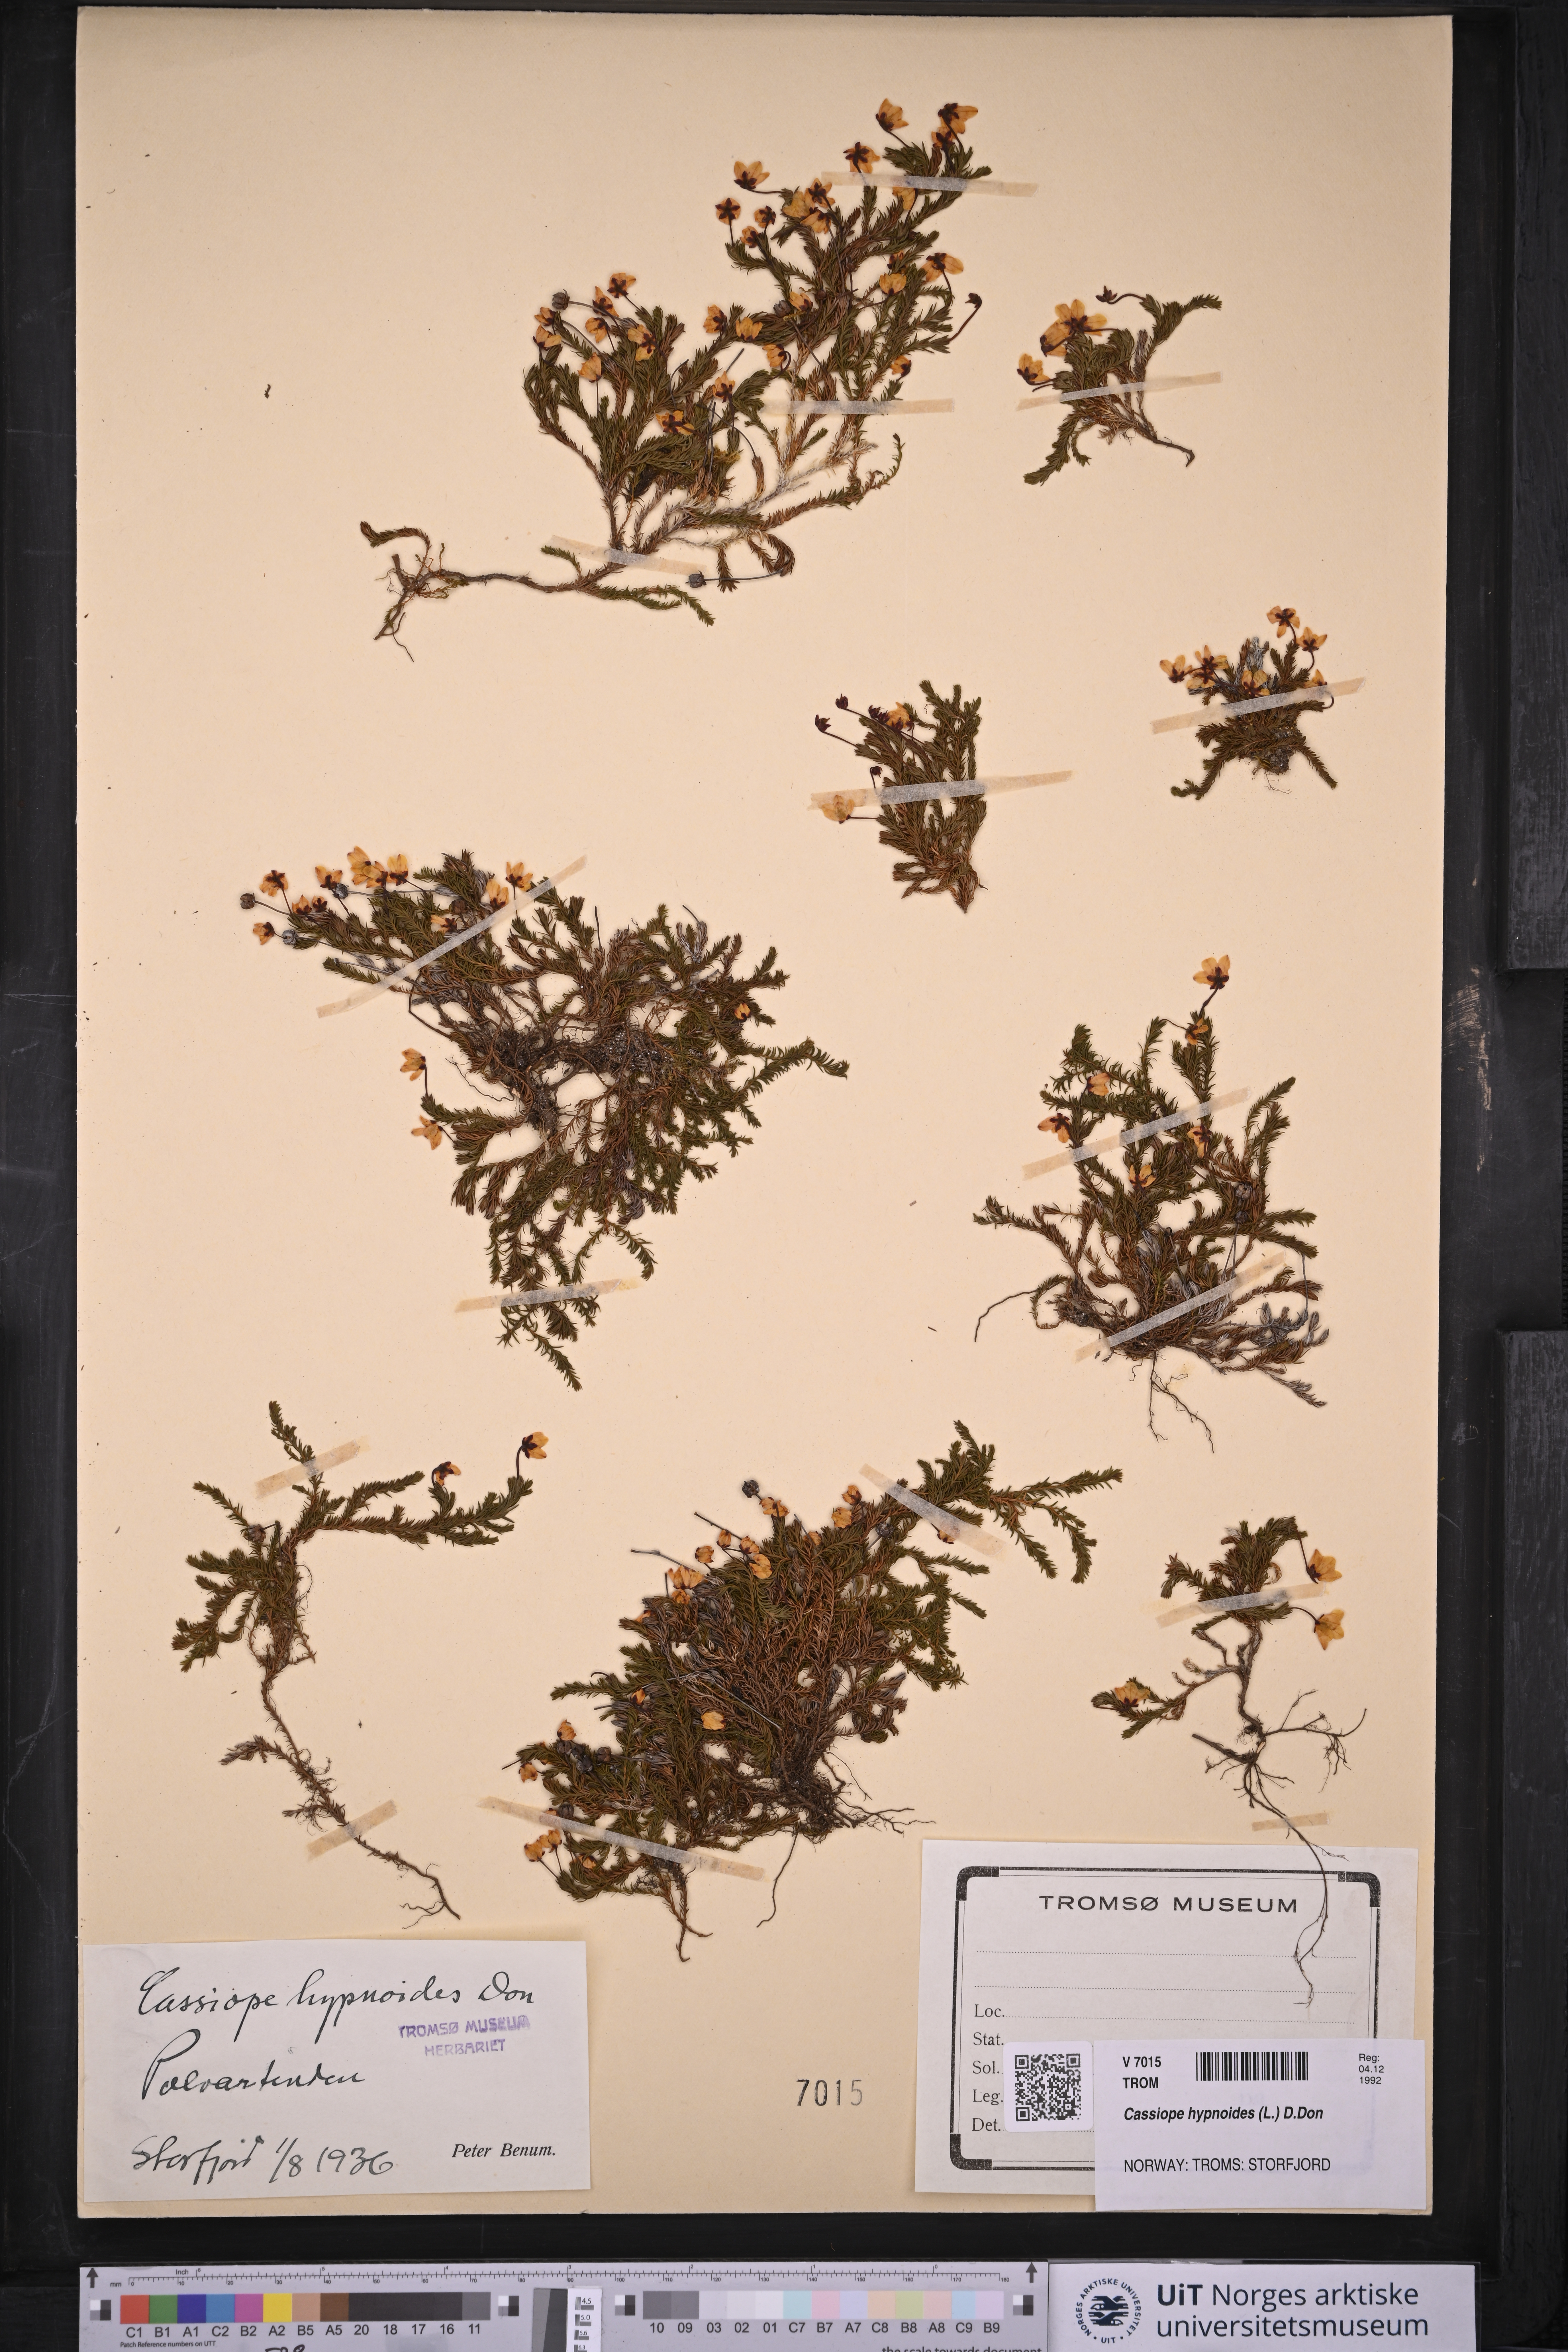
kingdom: Plantae
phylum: Tracheophyta
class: Magnoliopsida
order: Ericales
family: Ericaceae
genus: Harrimanella
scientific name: Harrimanella hypnoides
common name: Moss bell heather
